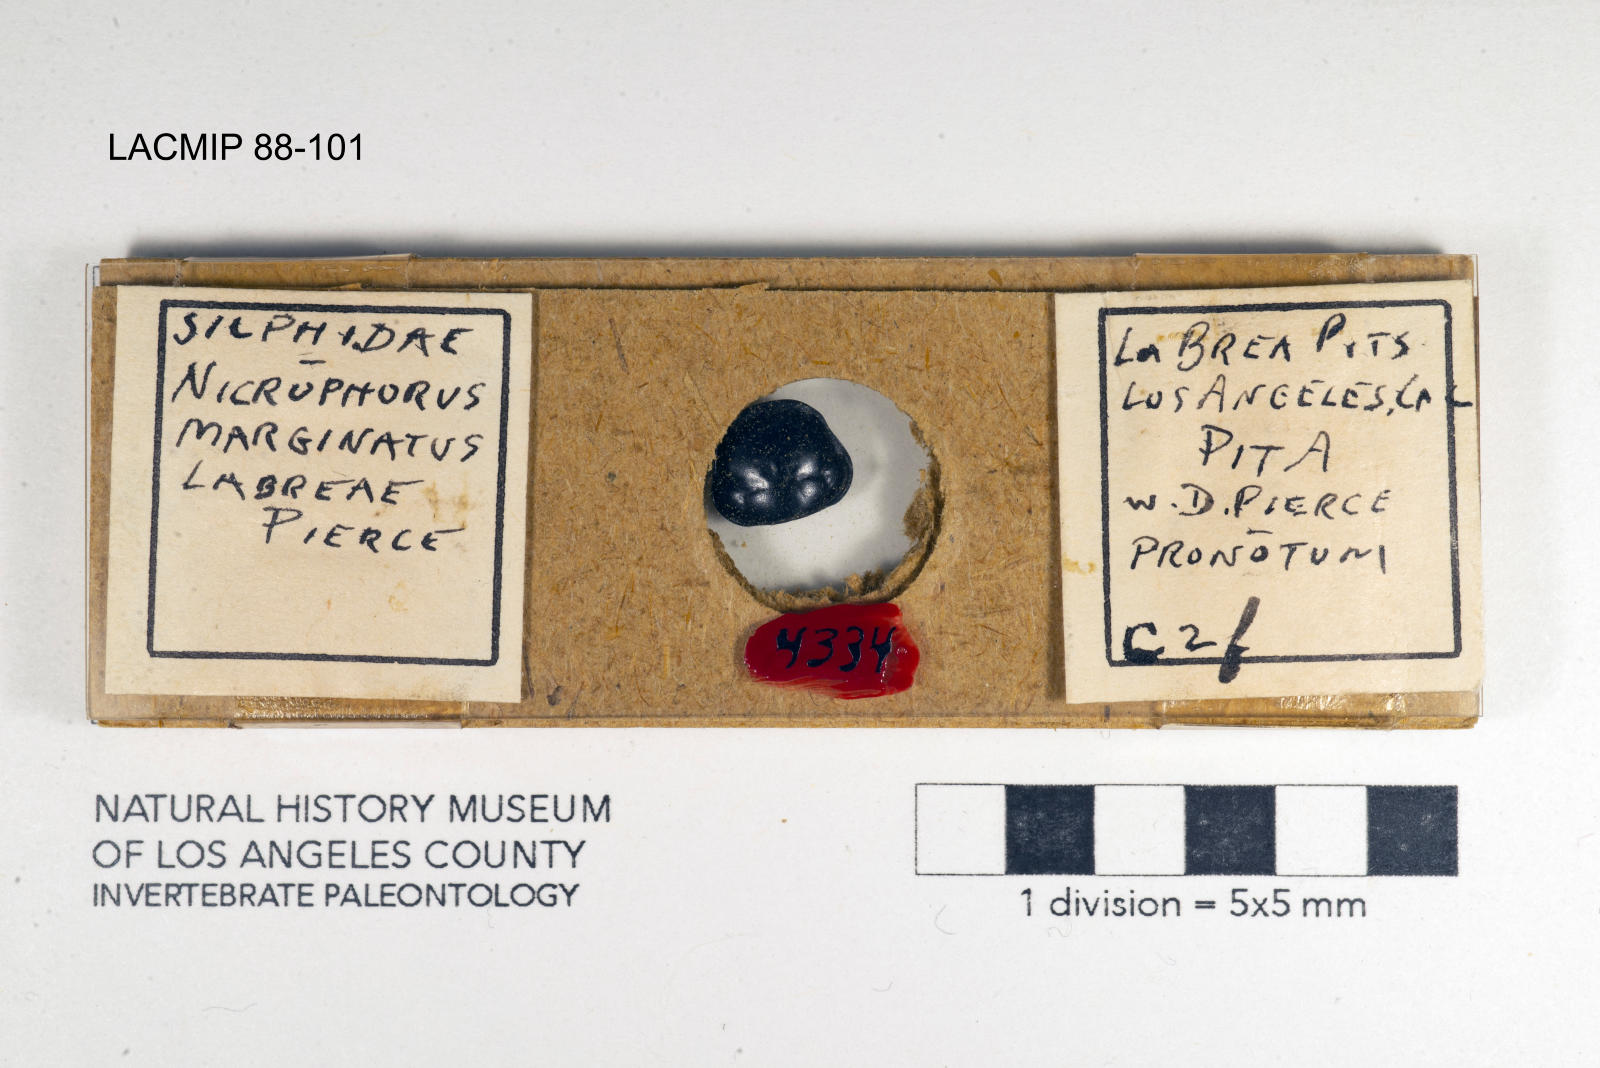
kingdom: Animalia
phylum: Arthropoda
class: Insecta
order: Coleoptera
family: Staphylinidae
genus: Nicrophorus
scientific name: Nicrophorus marginatus
